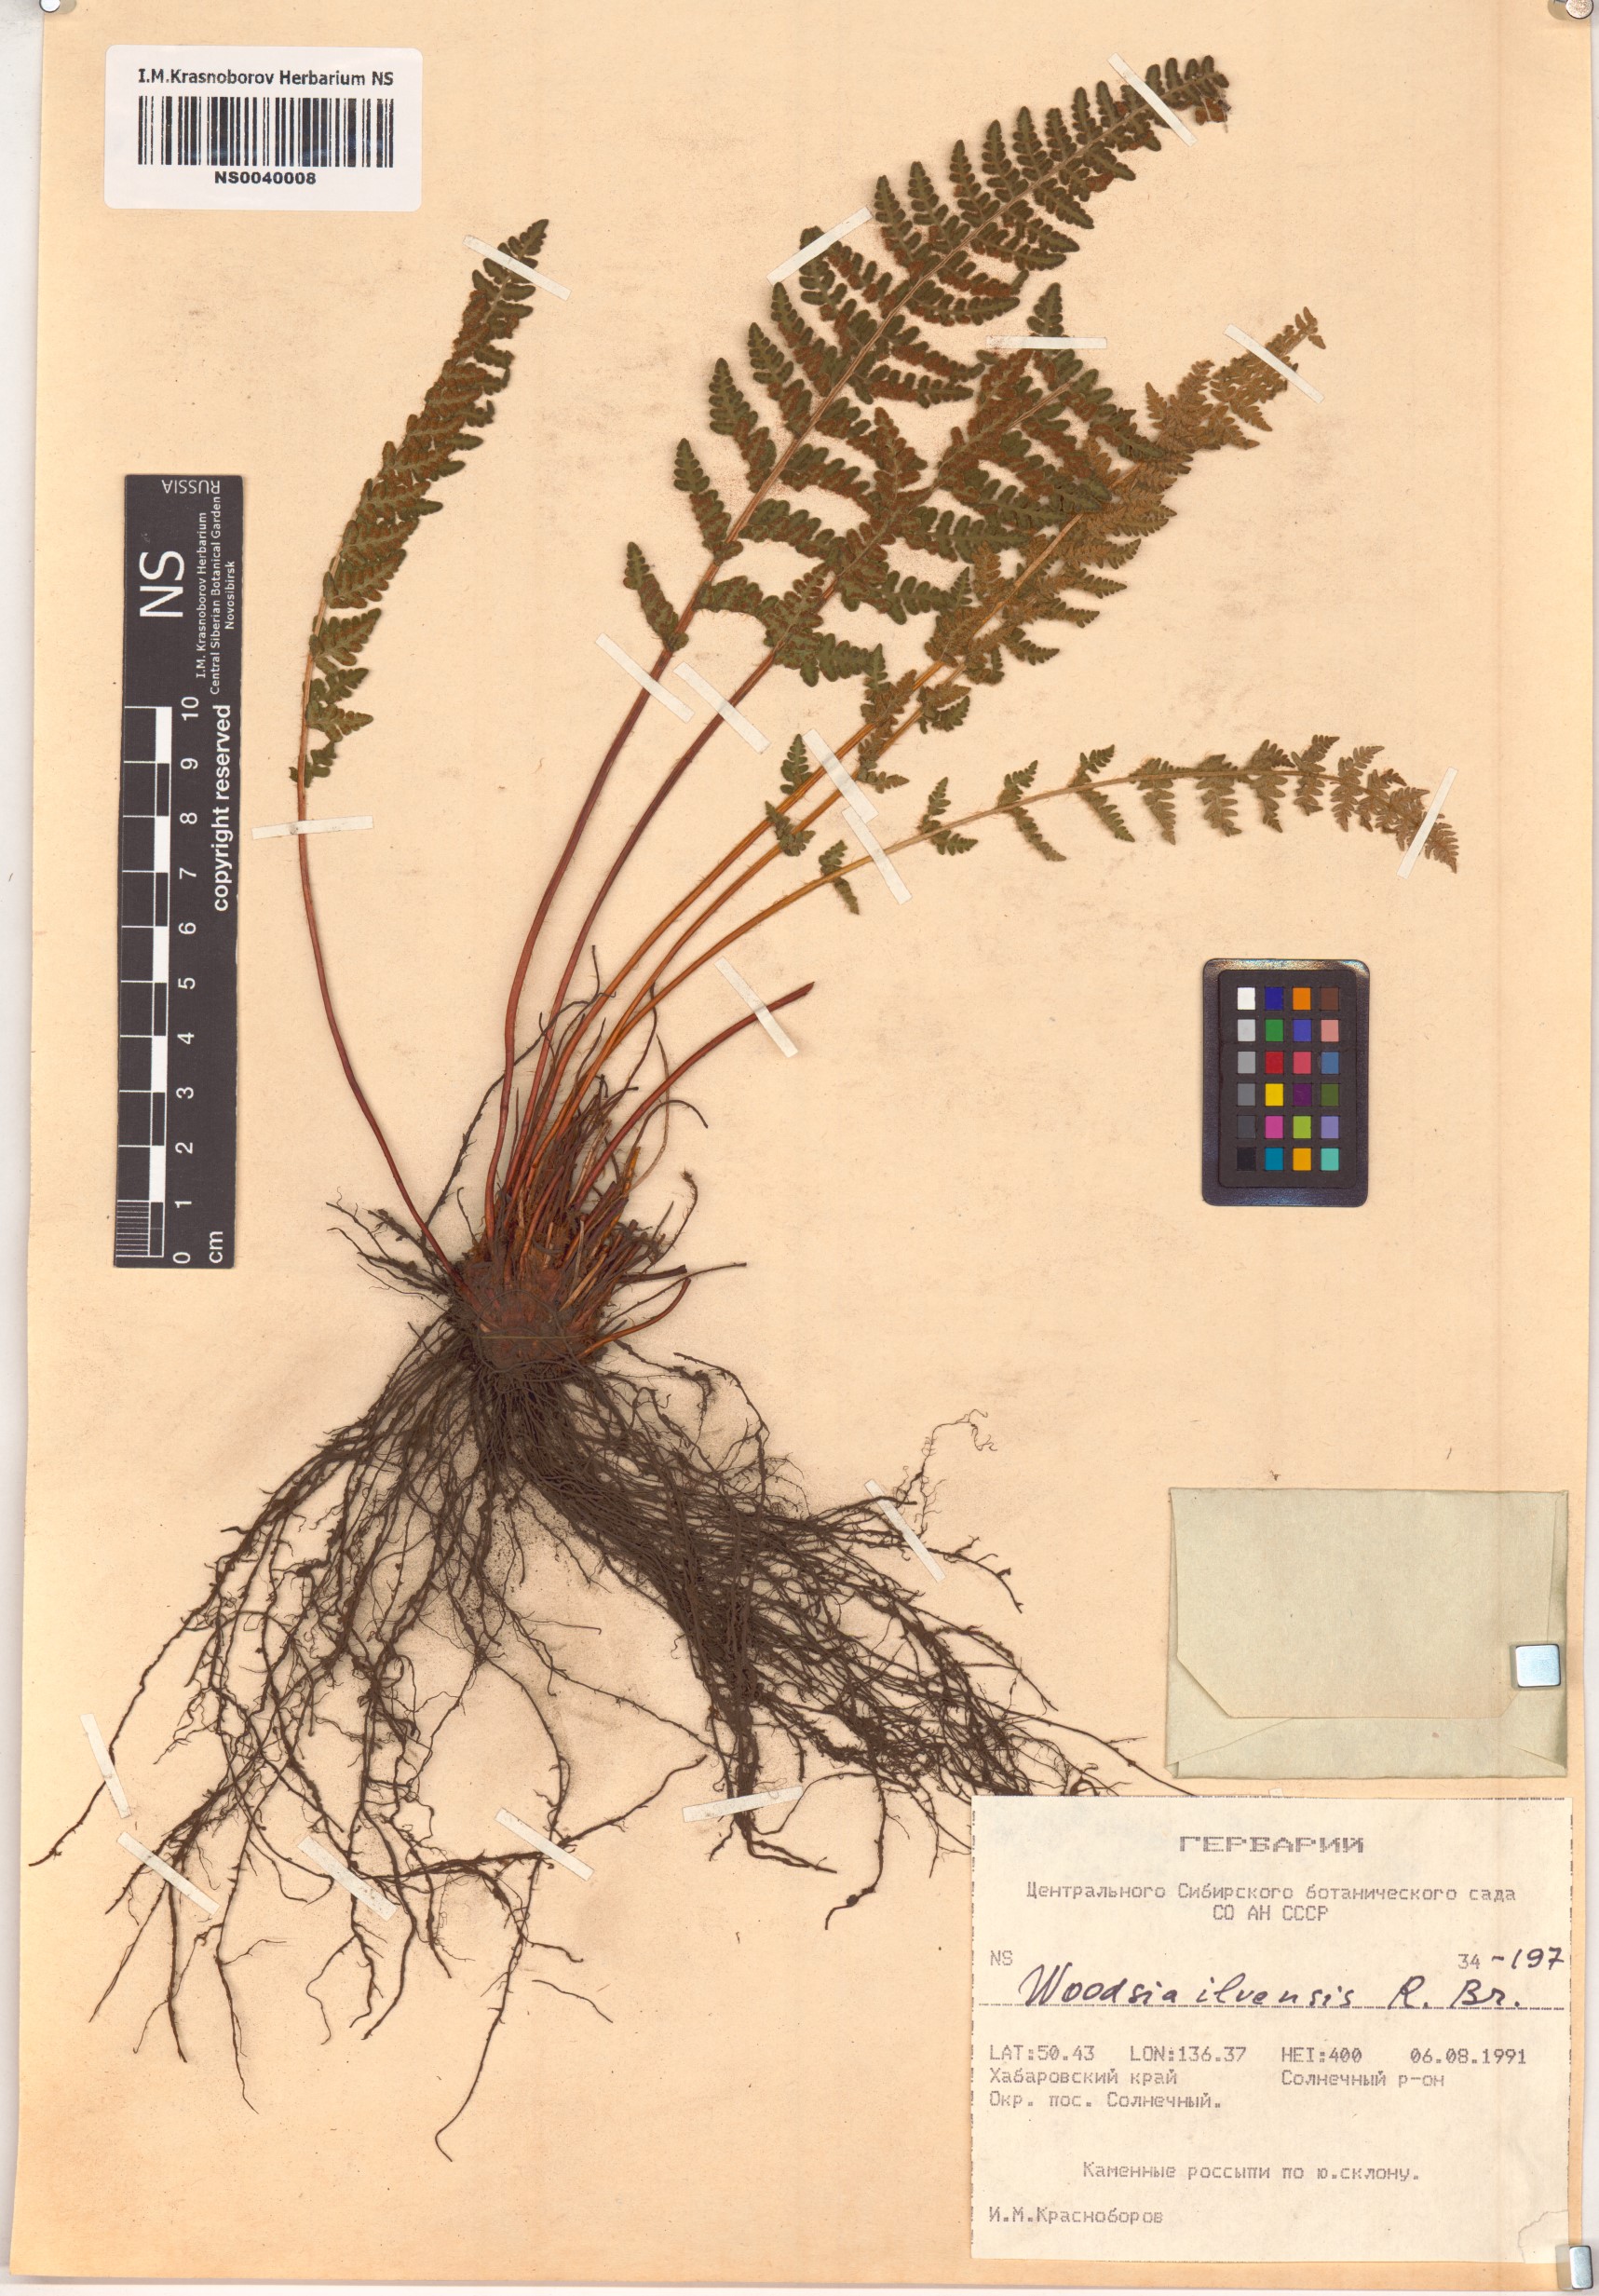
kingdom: Plantae
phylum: Tracheophyta
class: Polypodiopsida
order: Polypodiales
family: Woodsiaceae
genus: Woodsia
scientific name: Woodsia ilvensis
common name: Fragrant woodsia
